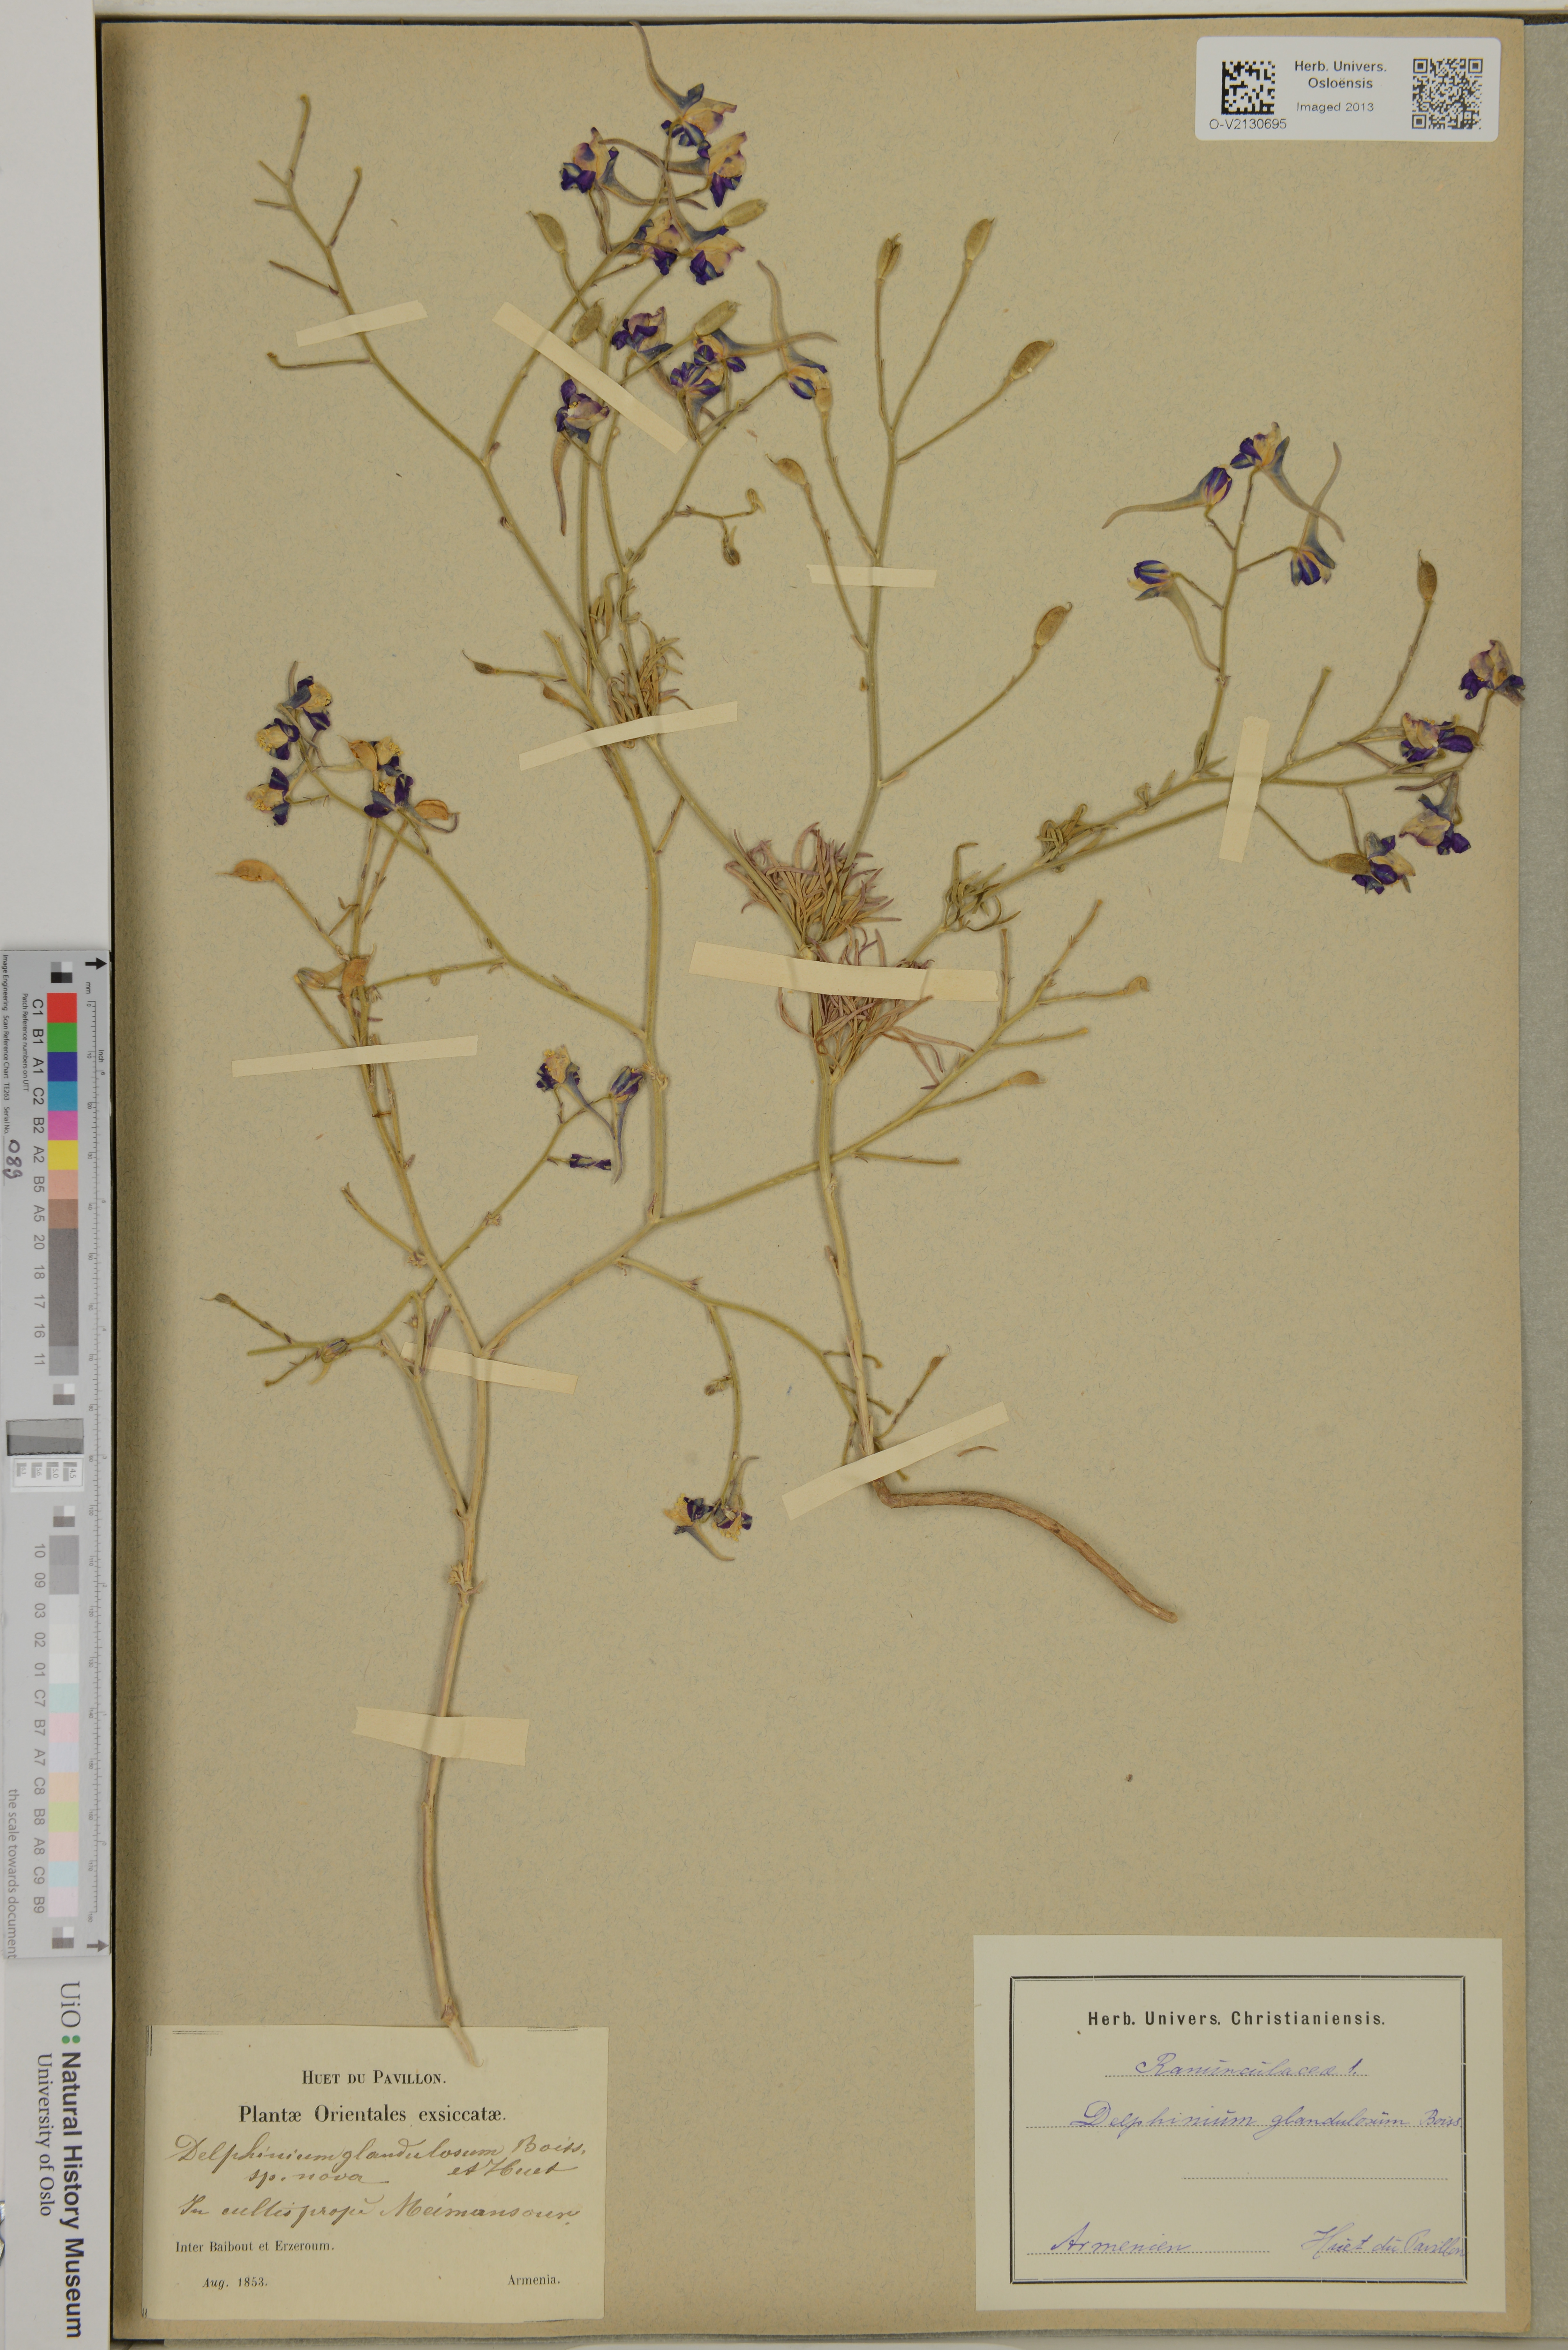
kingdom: Plantae
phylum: Tracheophyta
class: Magnoliopsida
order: Ranunculales
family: Ranunculaceae
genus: Delphinium
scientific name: Delphinium glandulosum
